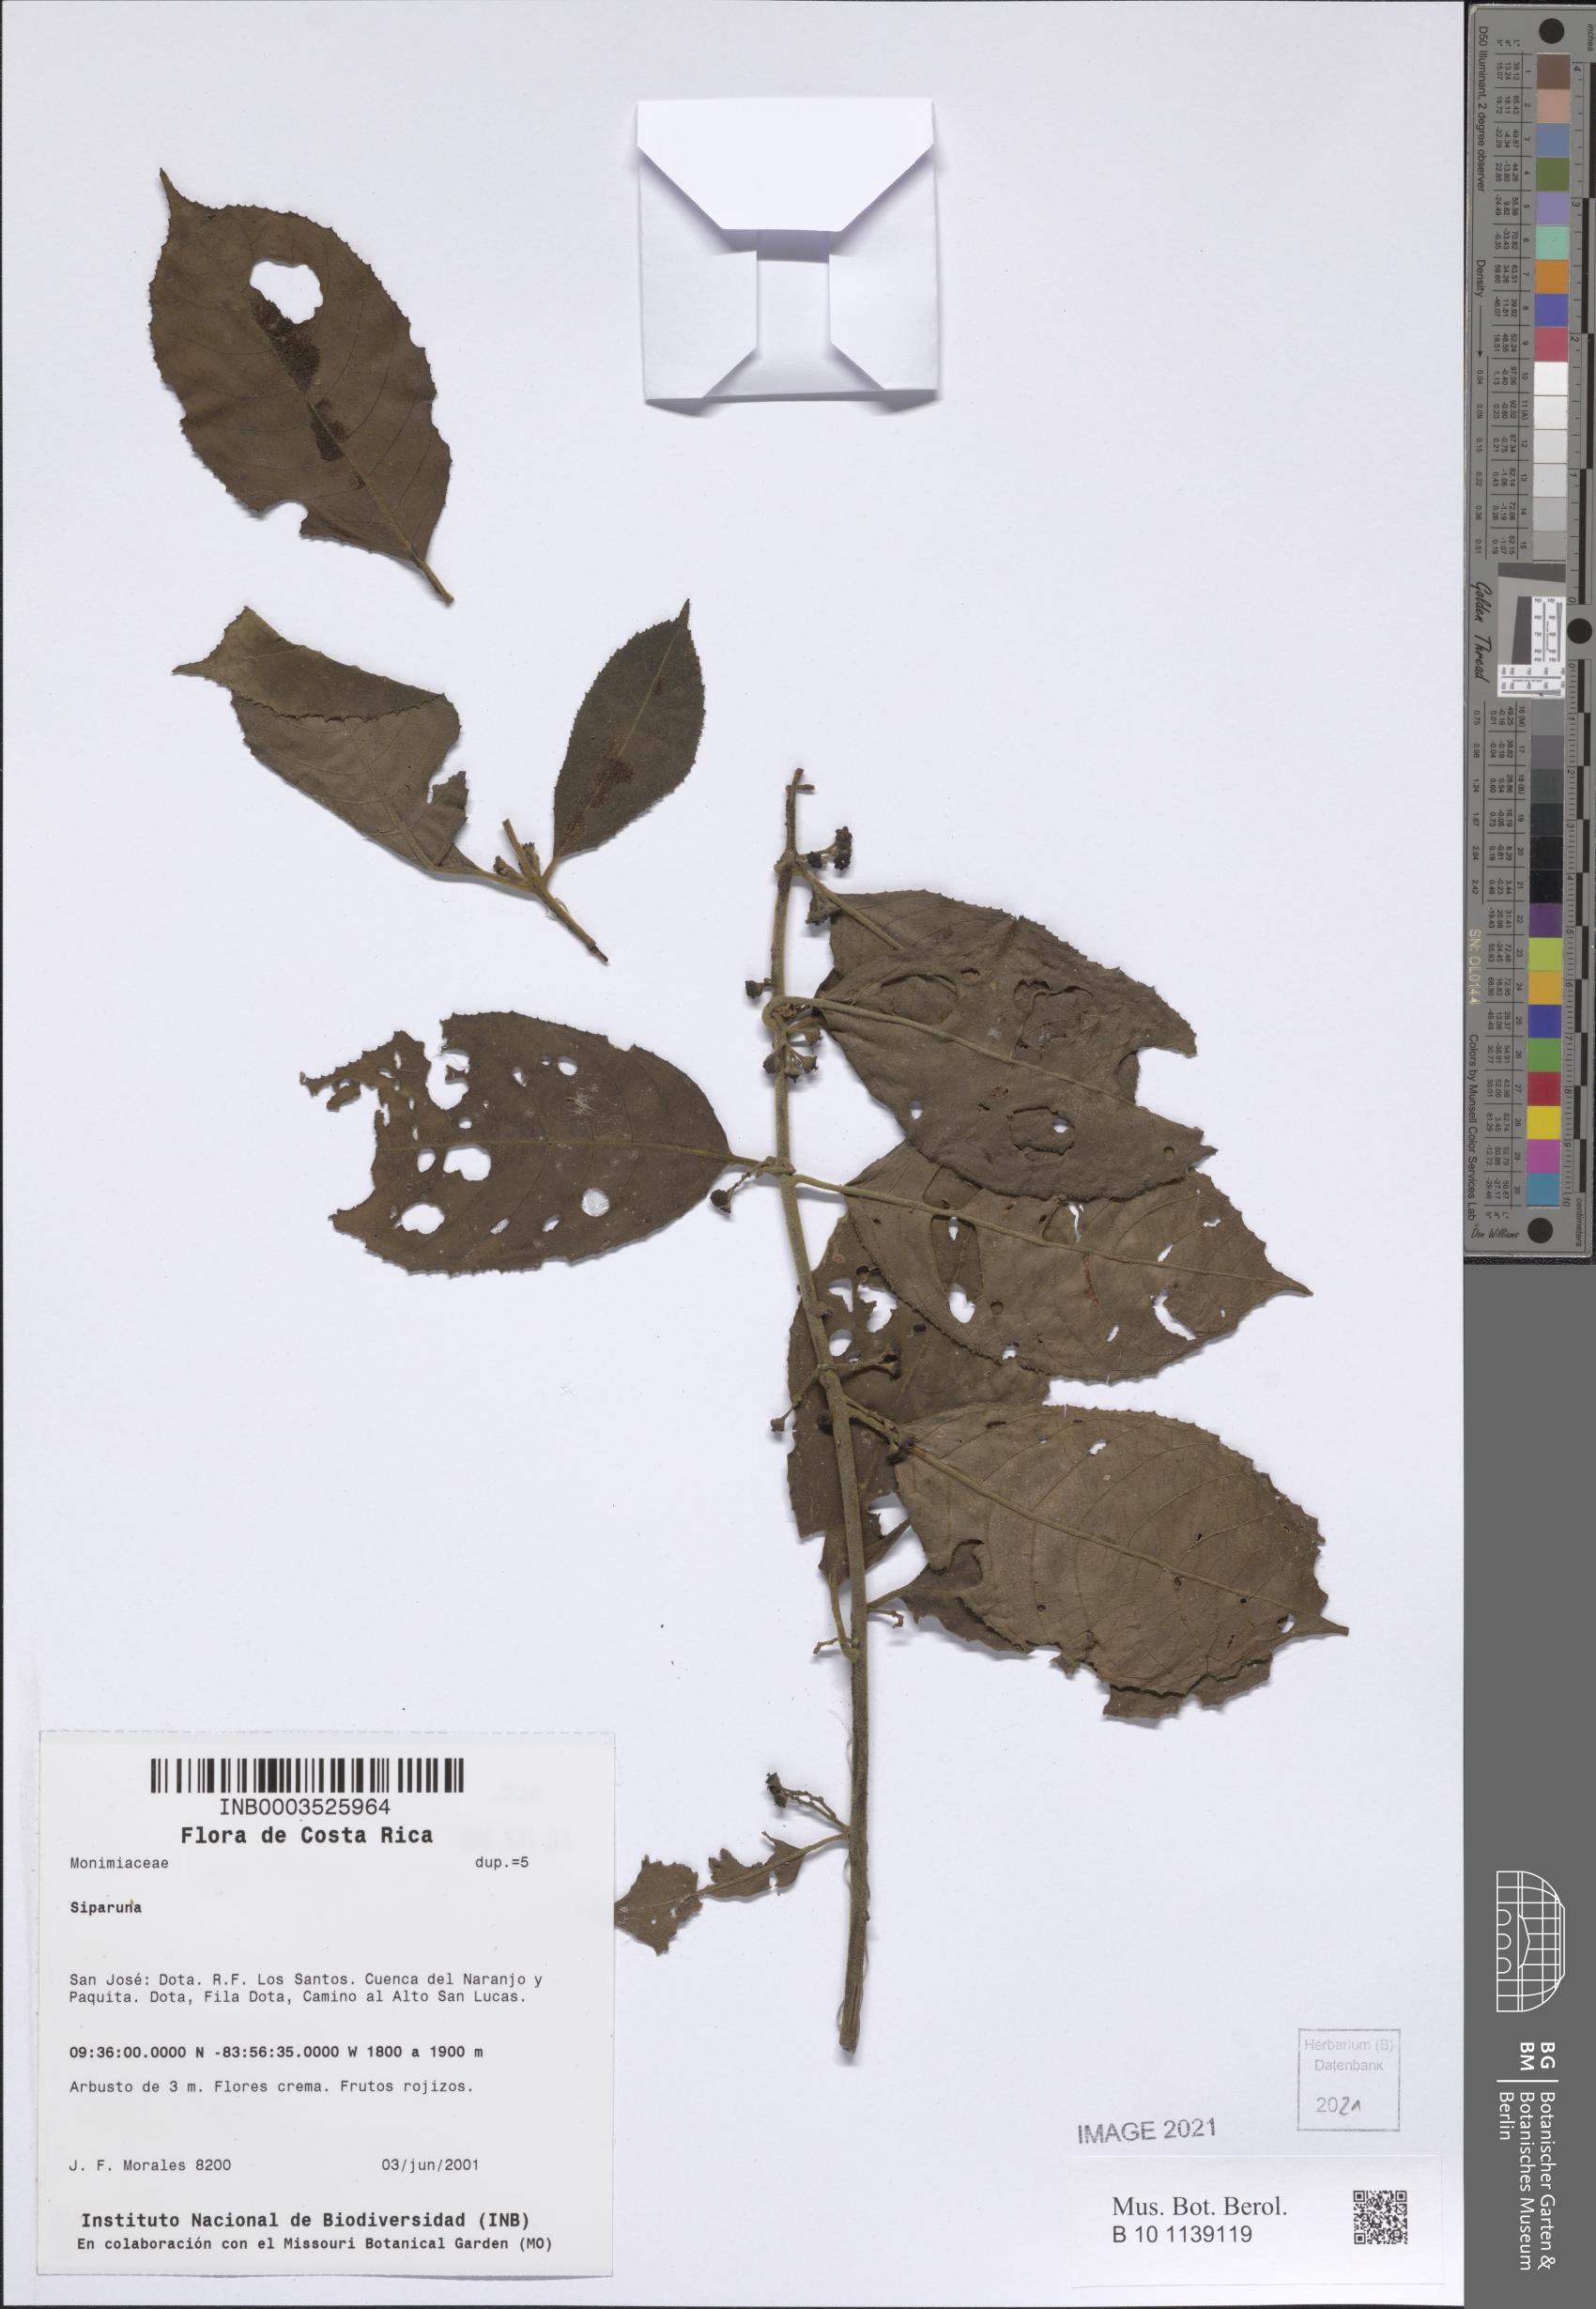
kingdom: Plantae
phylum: Tracheophyta
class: Magnoliopsida
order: Laurales
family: Siparunaceae
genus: Siparuna
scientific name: Siparuna
